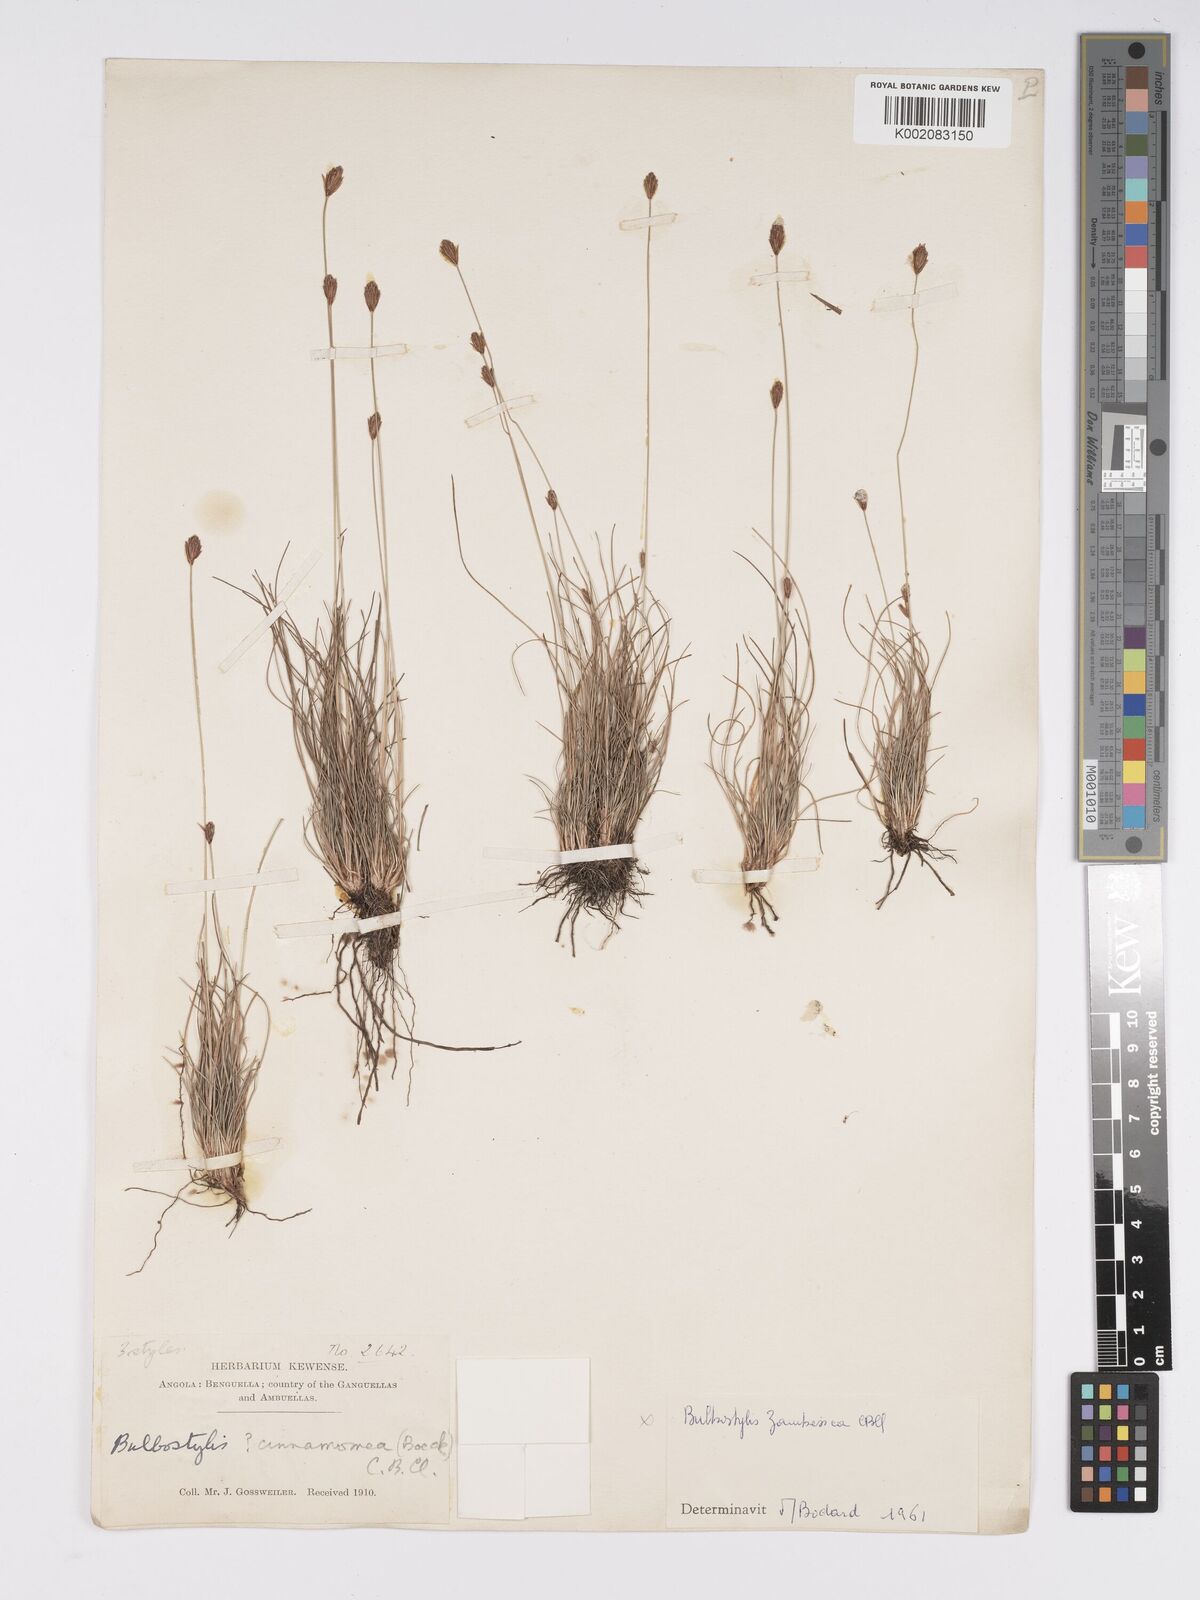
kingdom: Plantae
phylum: Tracheophyta
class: Liliopsida
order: Poales
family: Cyperaceae
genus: Bulbostylis
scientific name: Bulbostylis schoenoides
